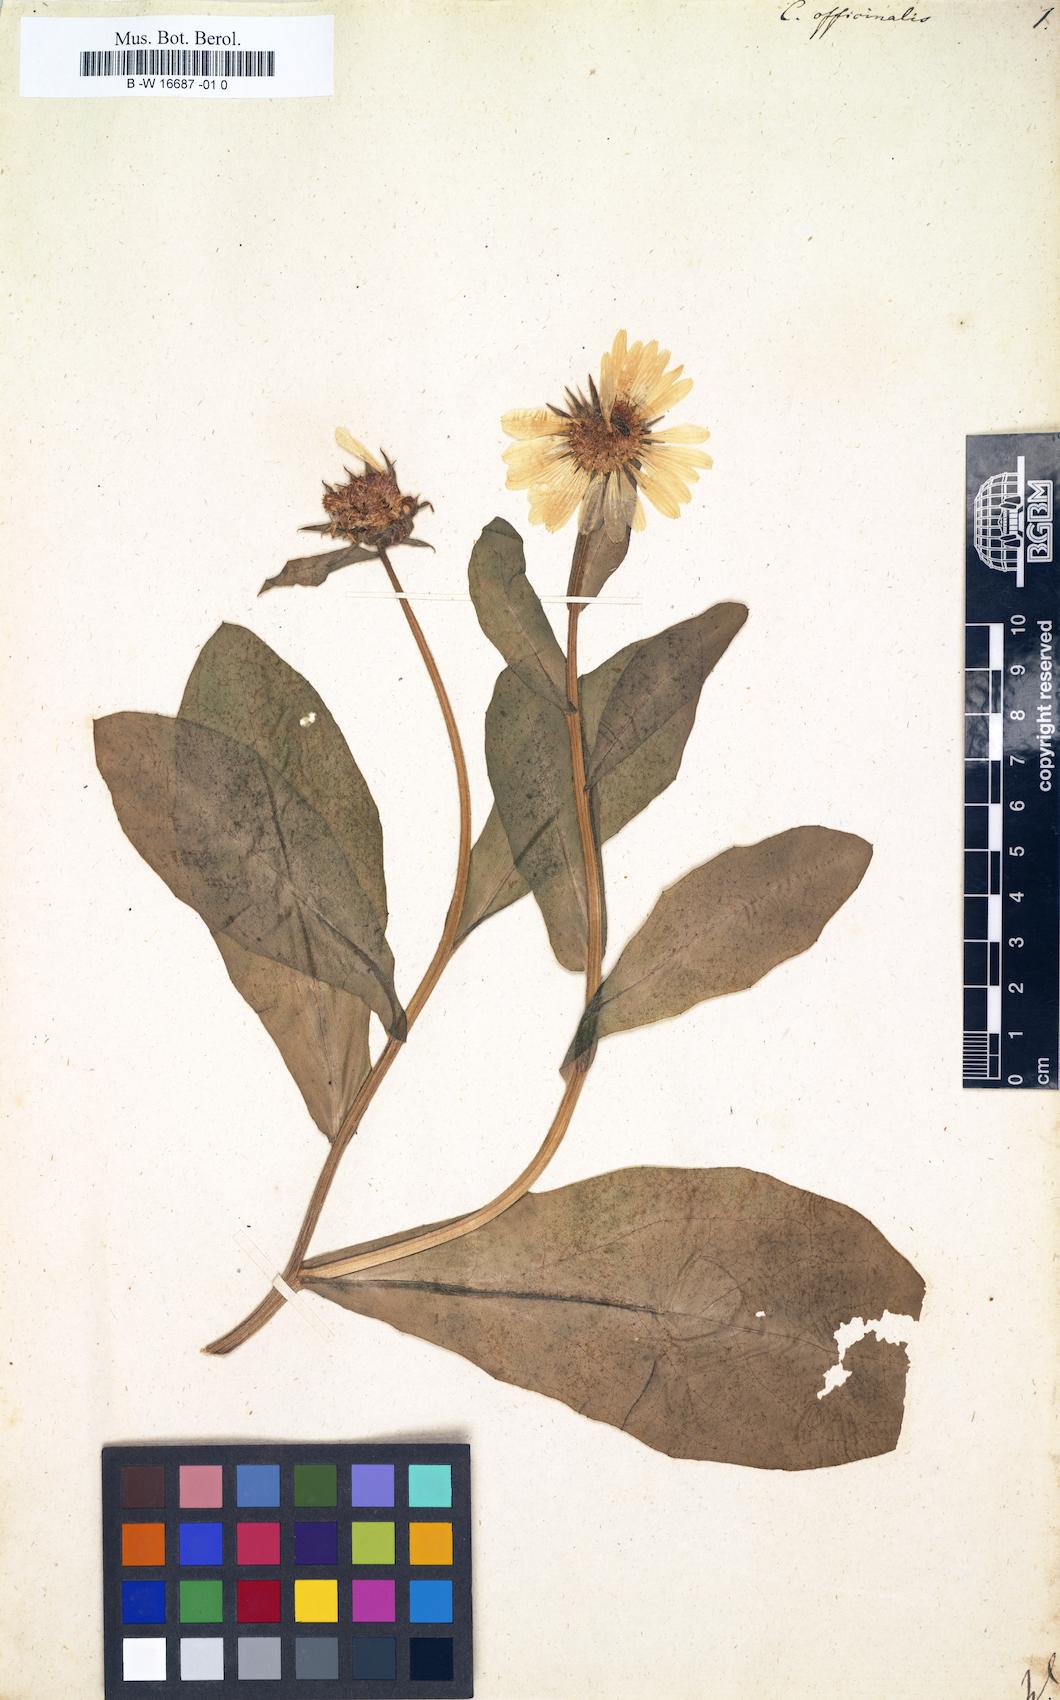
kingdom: Plantae
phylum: Tracheophyta
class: Magnoliopsida
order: Asterales
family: Asteraceae
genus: Calendula
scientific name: Calendula officinalis
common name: Pot marigold
